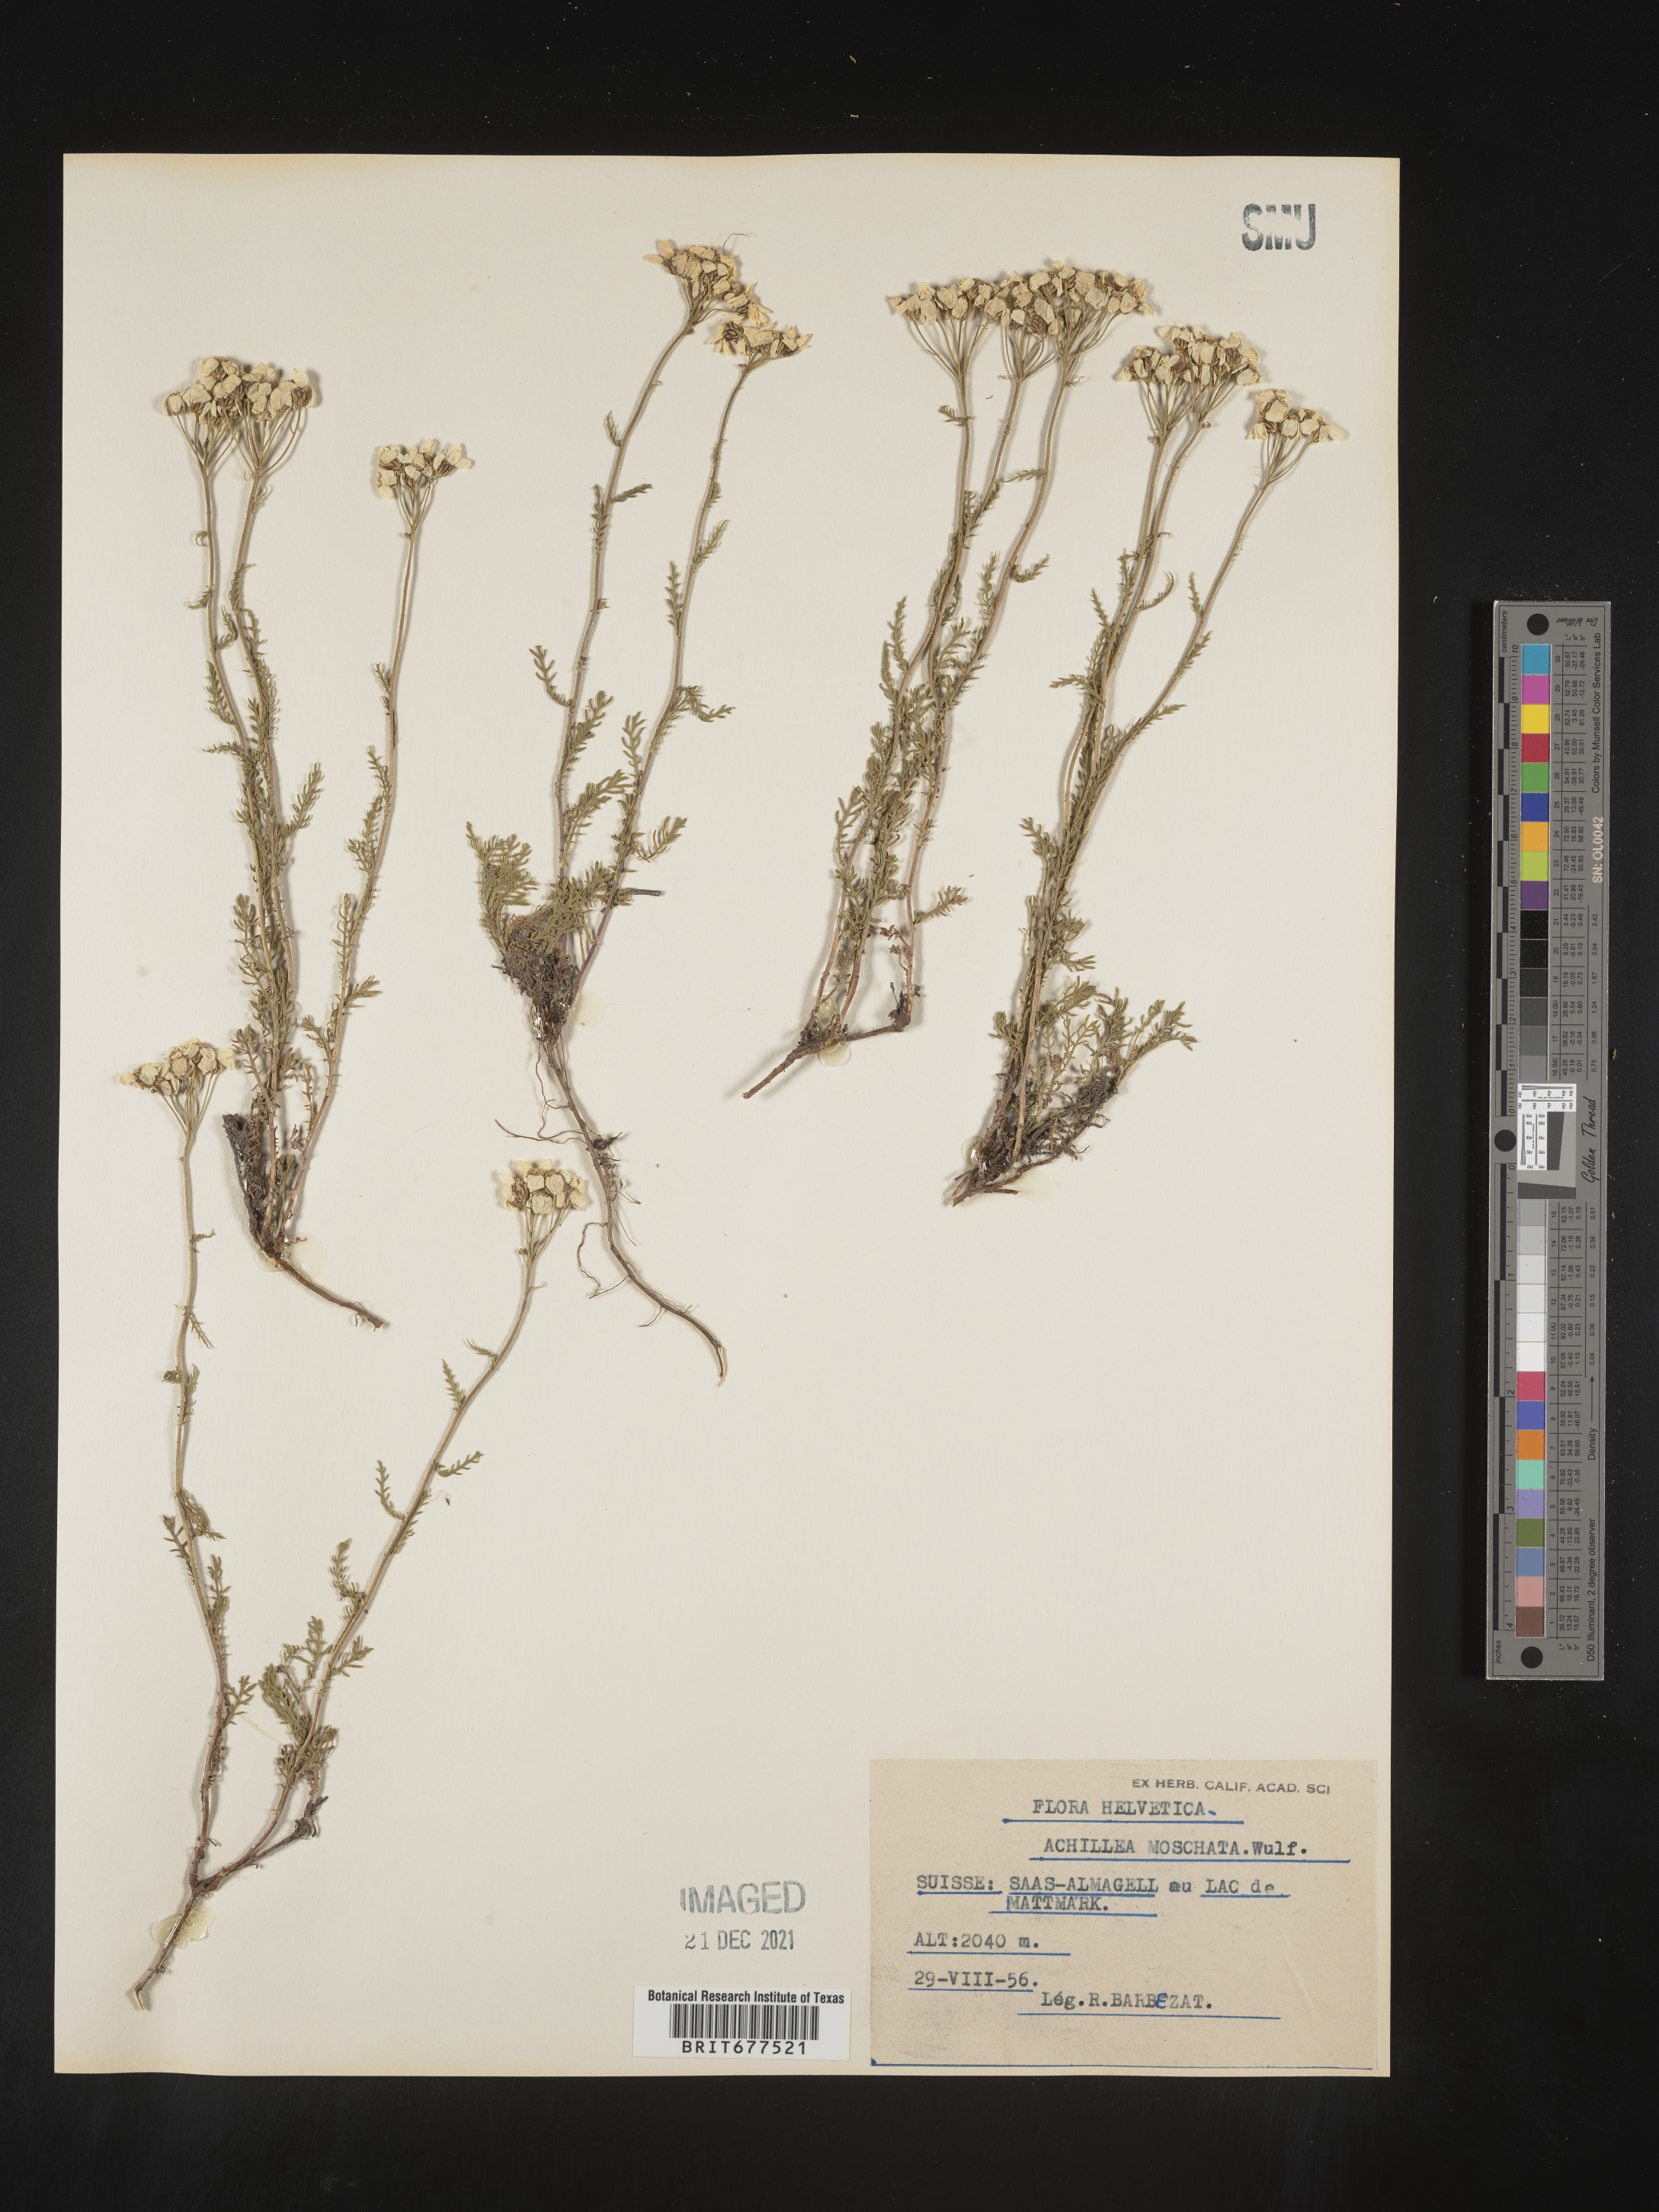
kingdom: Plantae
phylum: Tracheophyta
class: Magnoliopsida
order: Asterales
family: Asteraceae
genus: Achillea
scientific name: Achillea
